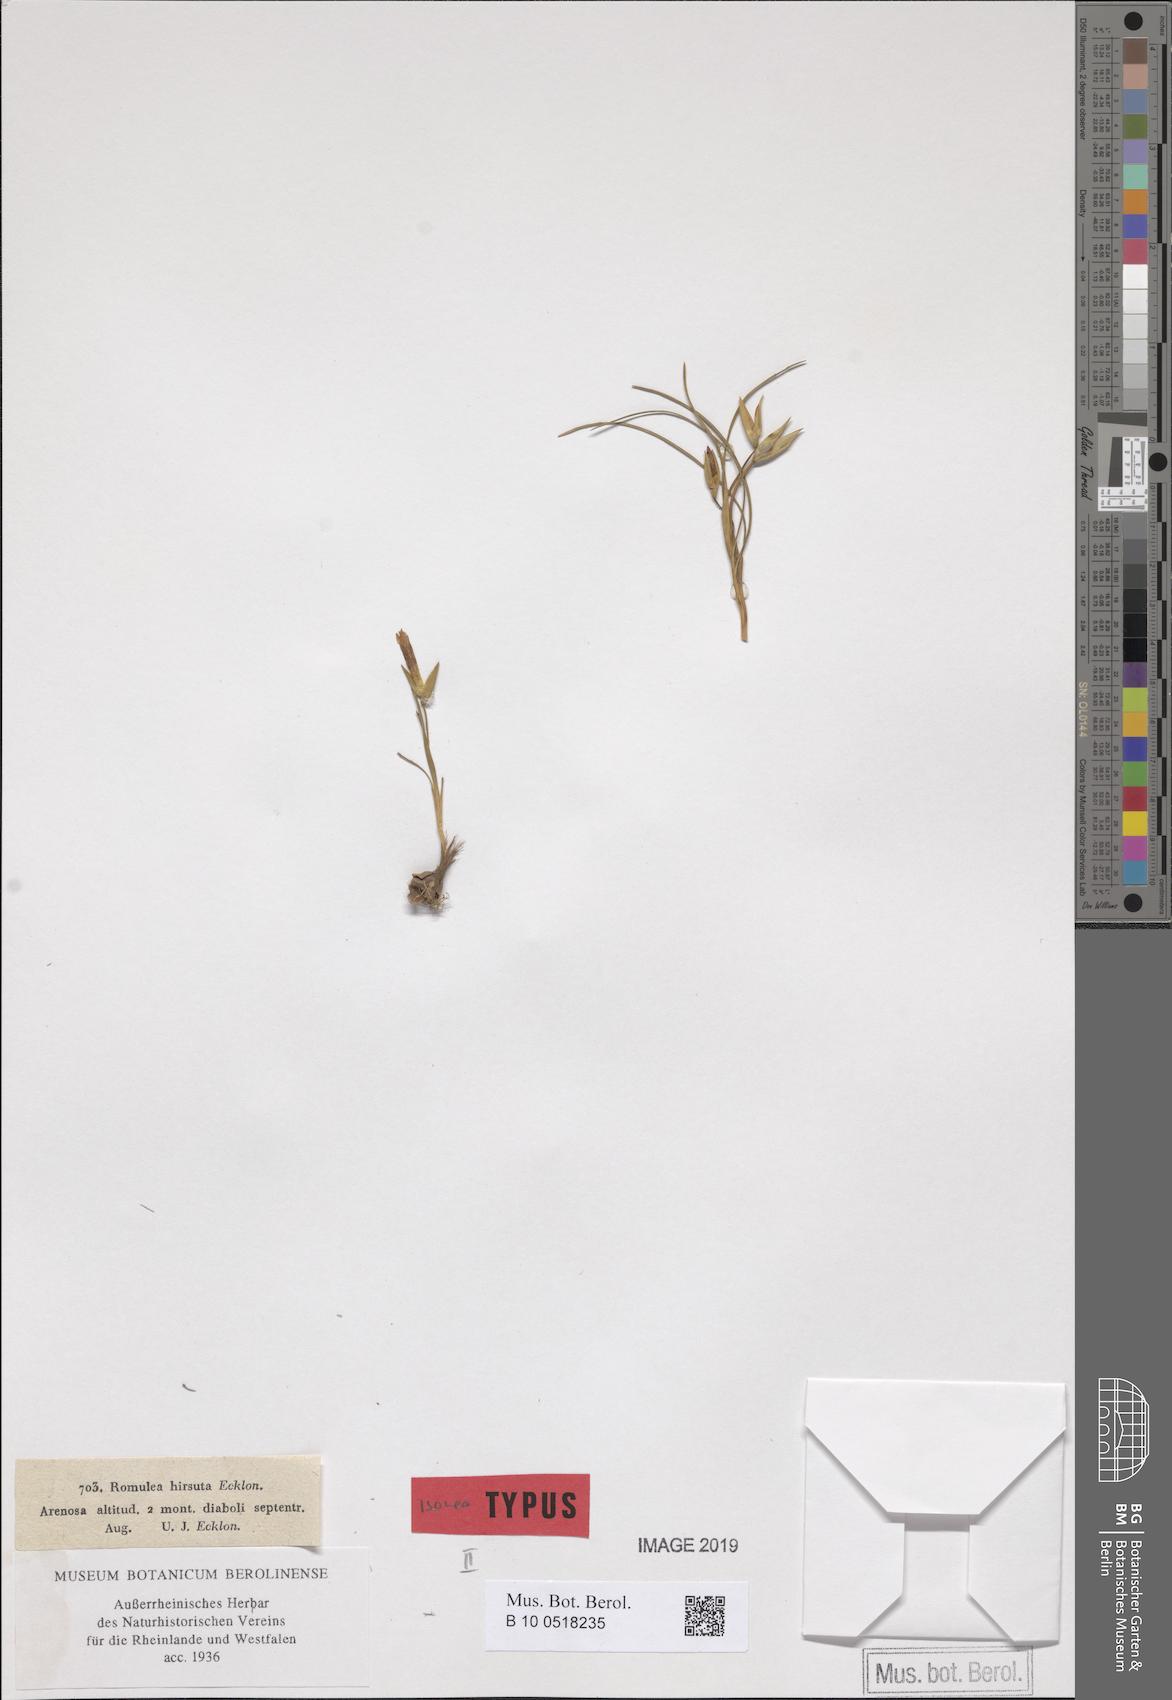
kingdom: Plantae
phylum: Tracheophyta
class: Liliopsida
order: Asparagales
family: Iridaceae
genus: Romulea
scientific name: Romulea hirsuta
